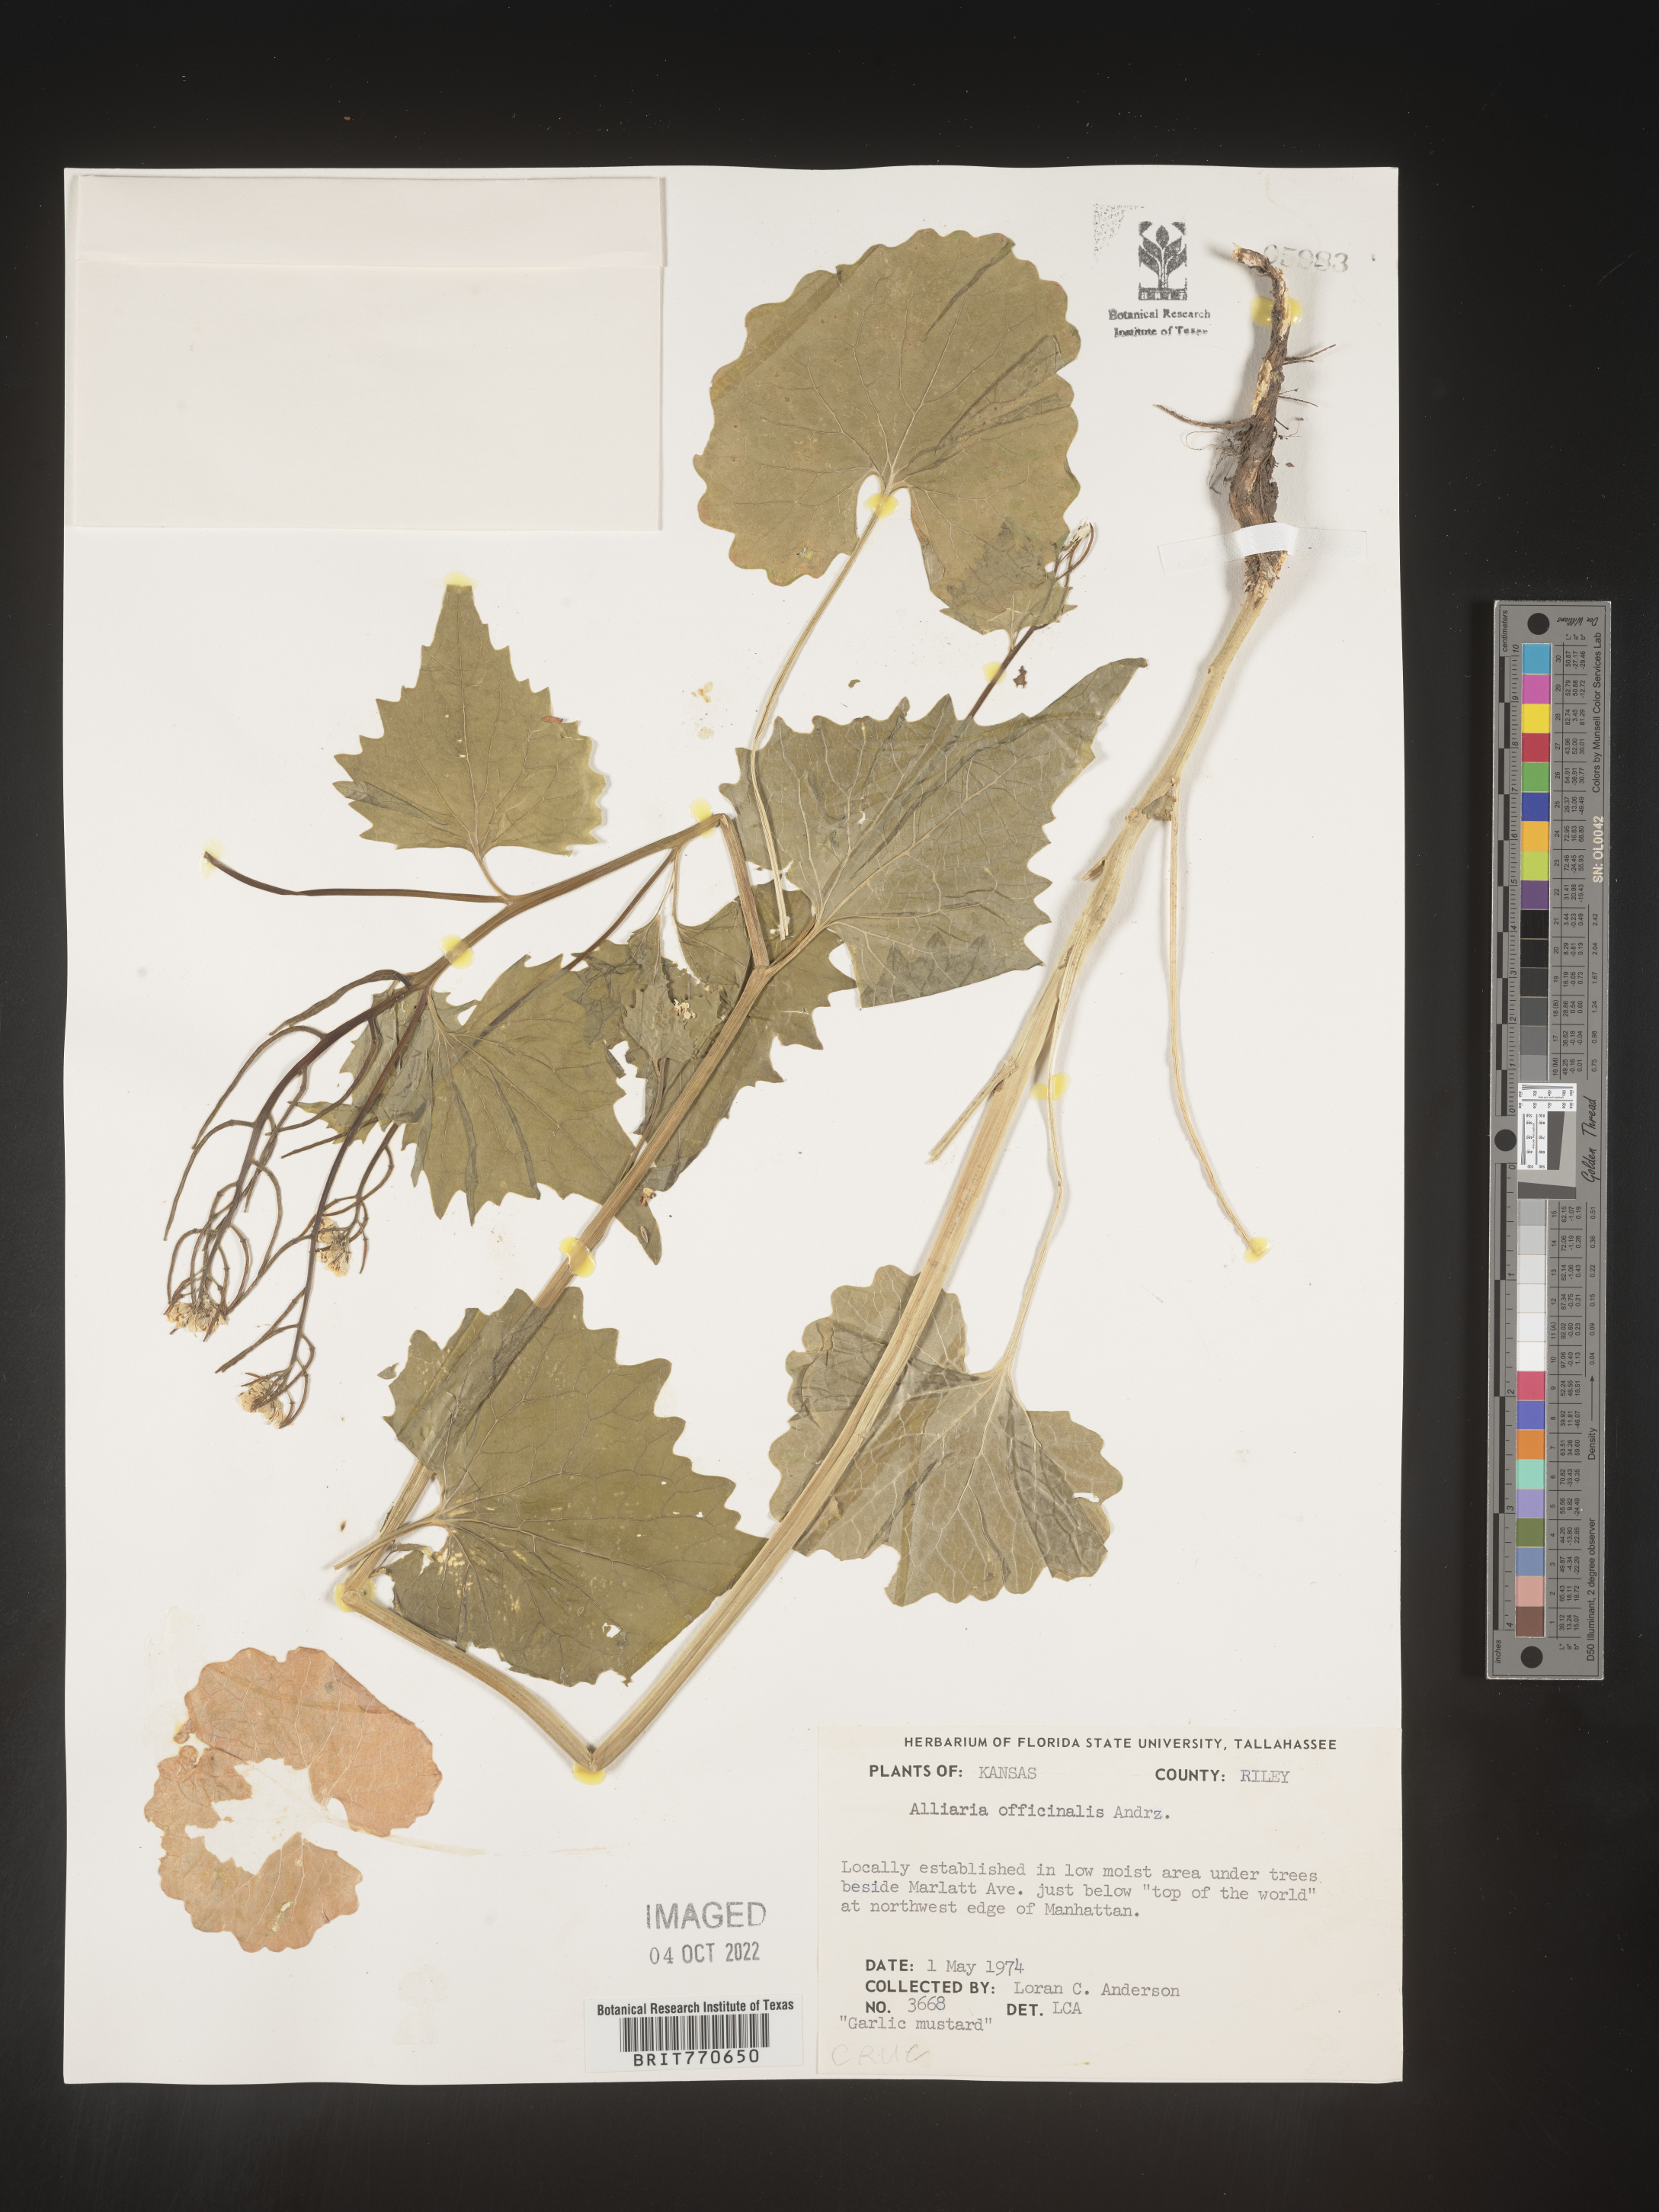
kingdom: Plantae
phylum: Tracheophyta
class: Magnoliopsida
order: Brassicales
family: Brassicaceae
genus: Alliaria
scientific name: Alliaria
